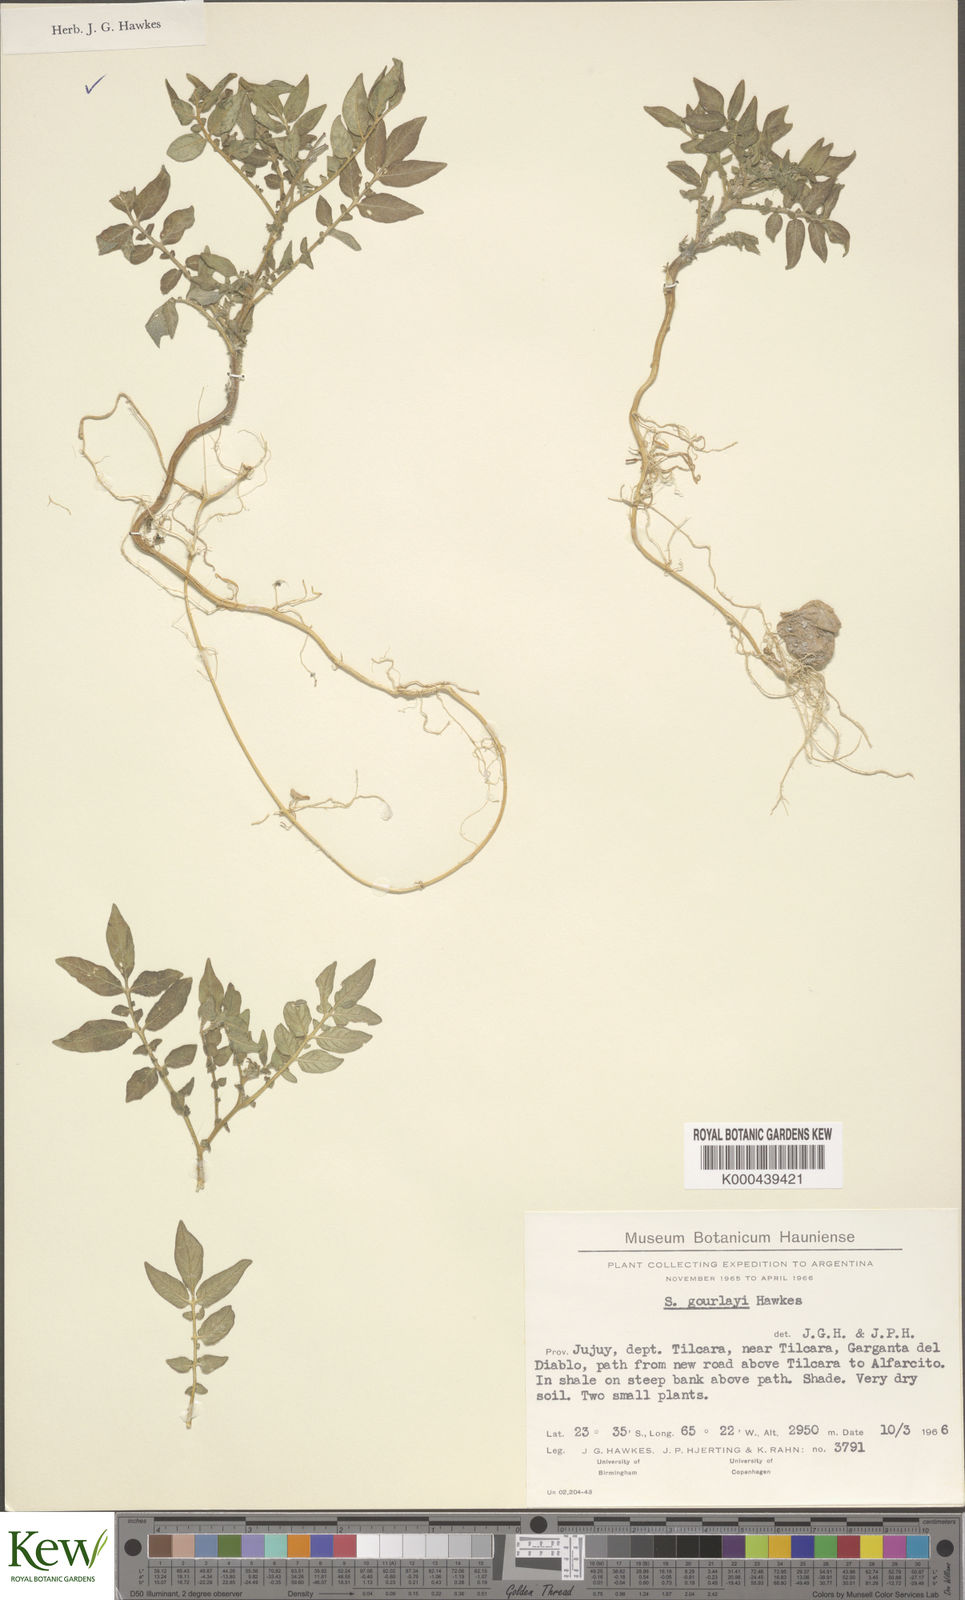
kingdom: Plantae
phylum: Tracheophyta
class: Magnoliopsida
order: Solanales
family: Solanaceae
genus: Solanum
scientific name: Solanum brevicaule
